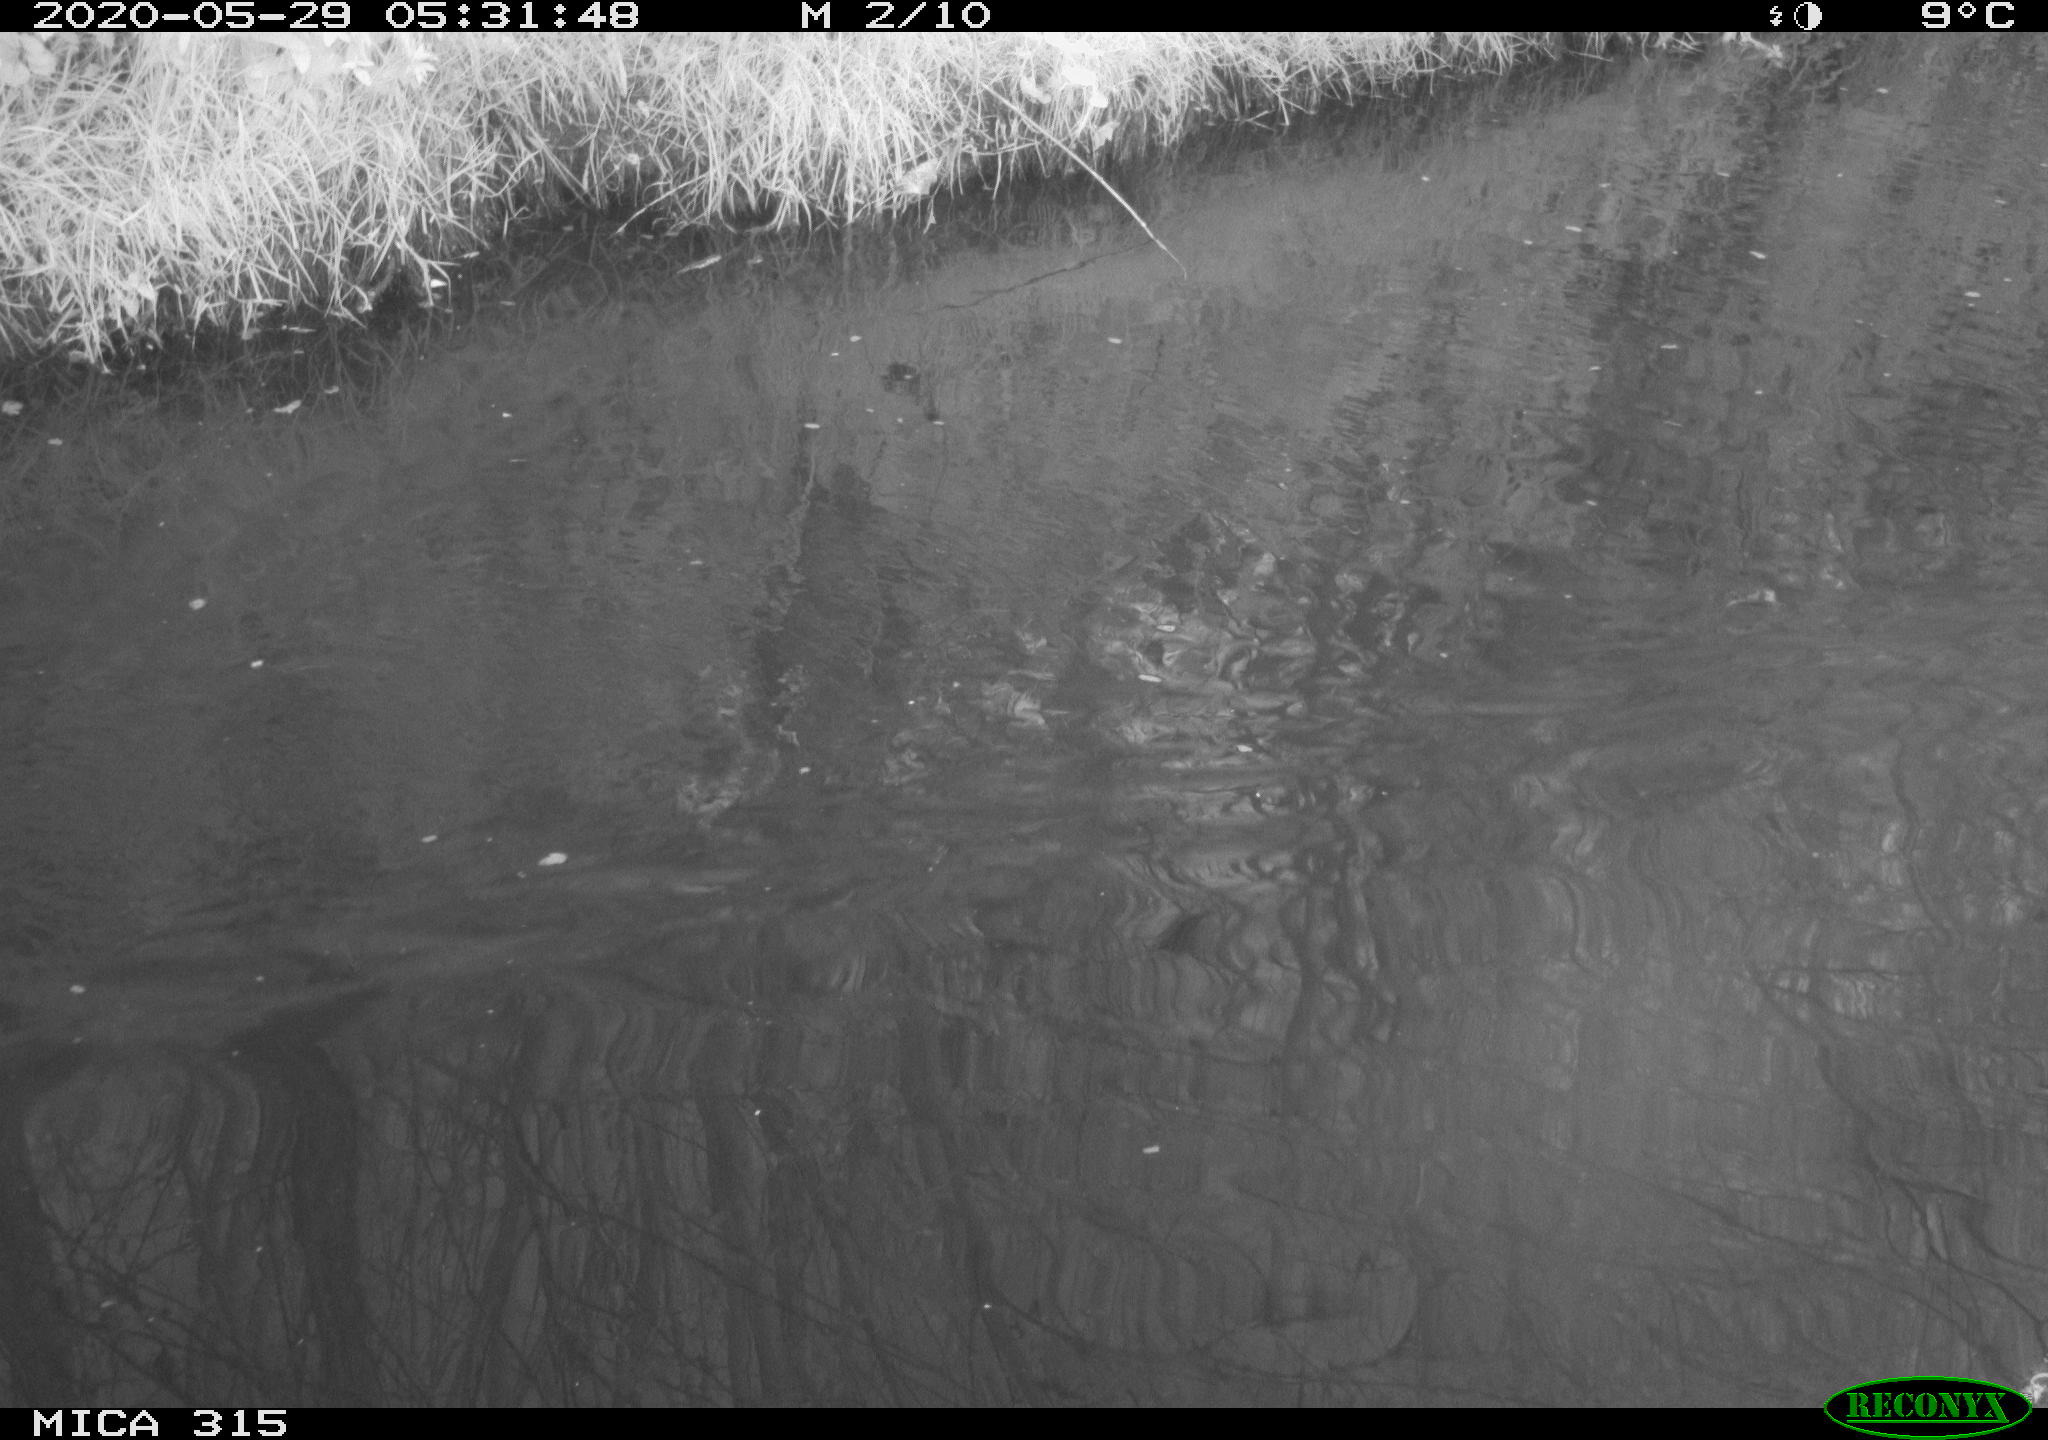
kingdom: Animalia
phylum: Chordata
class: Aves
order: Anseriformes
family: Anatidae
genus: Anas
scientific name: Anas platyrhynchos
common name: Mallard
